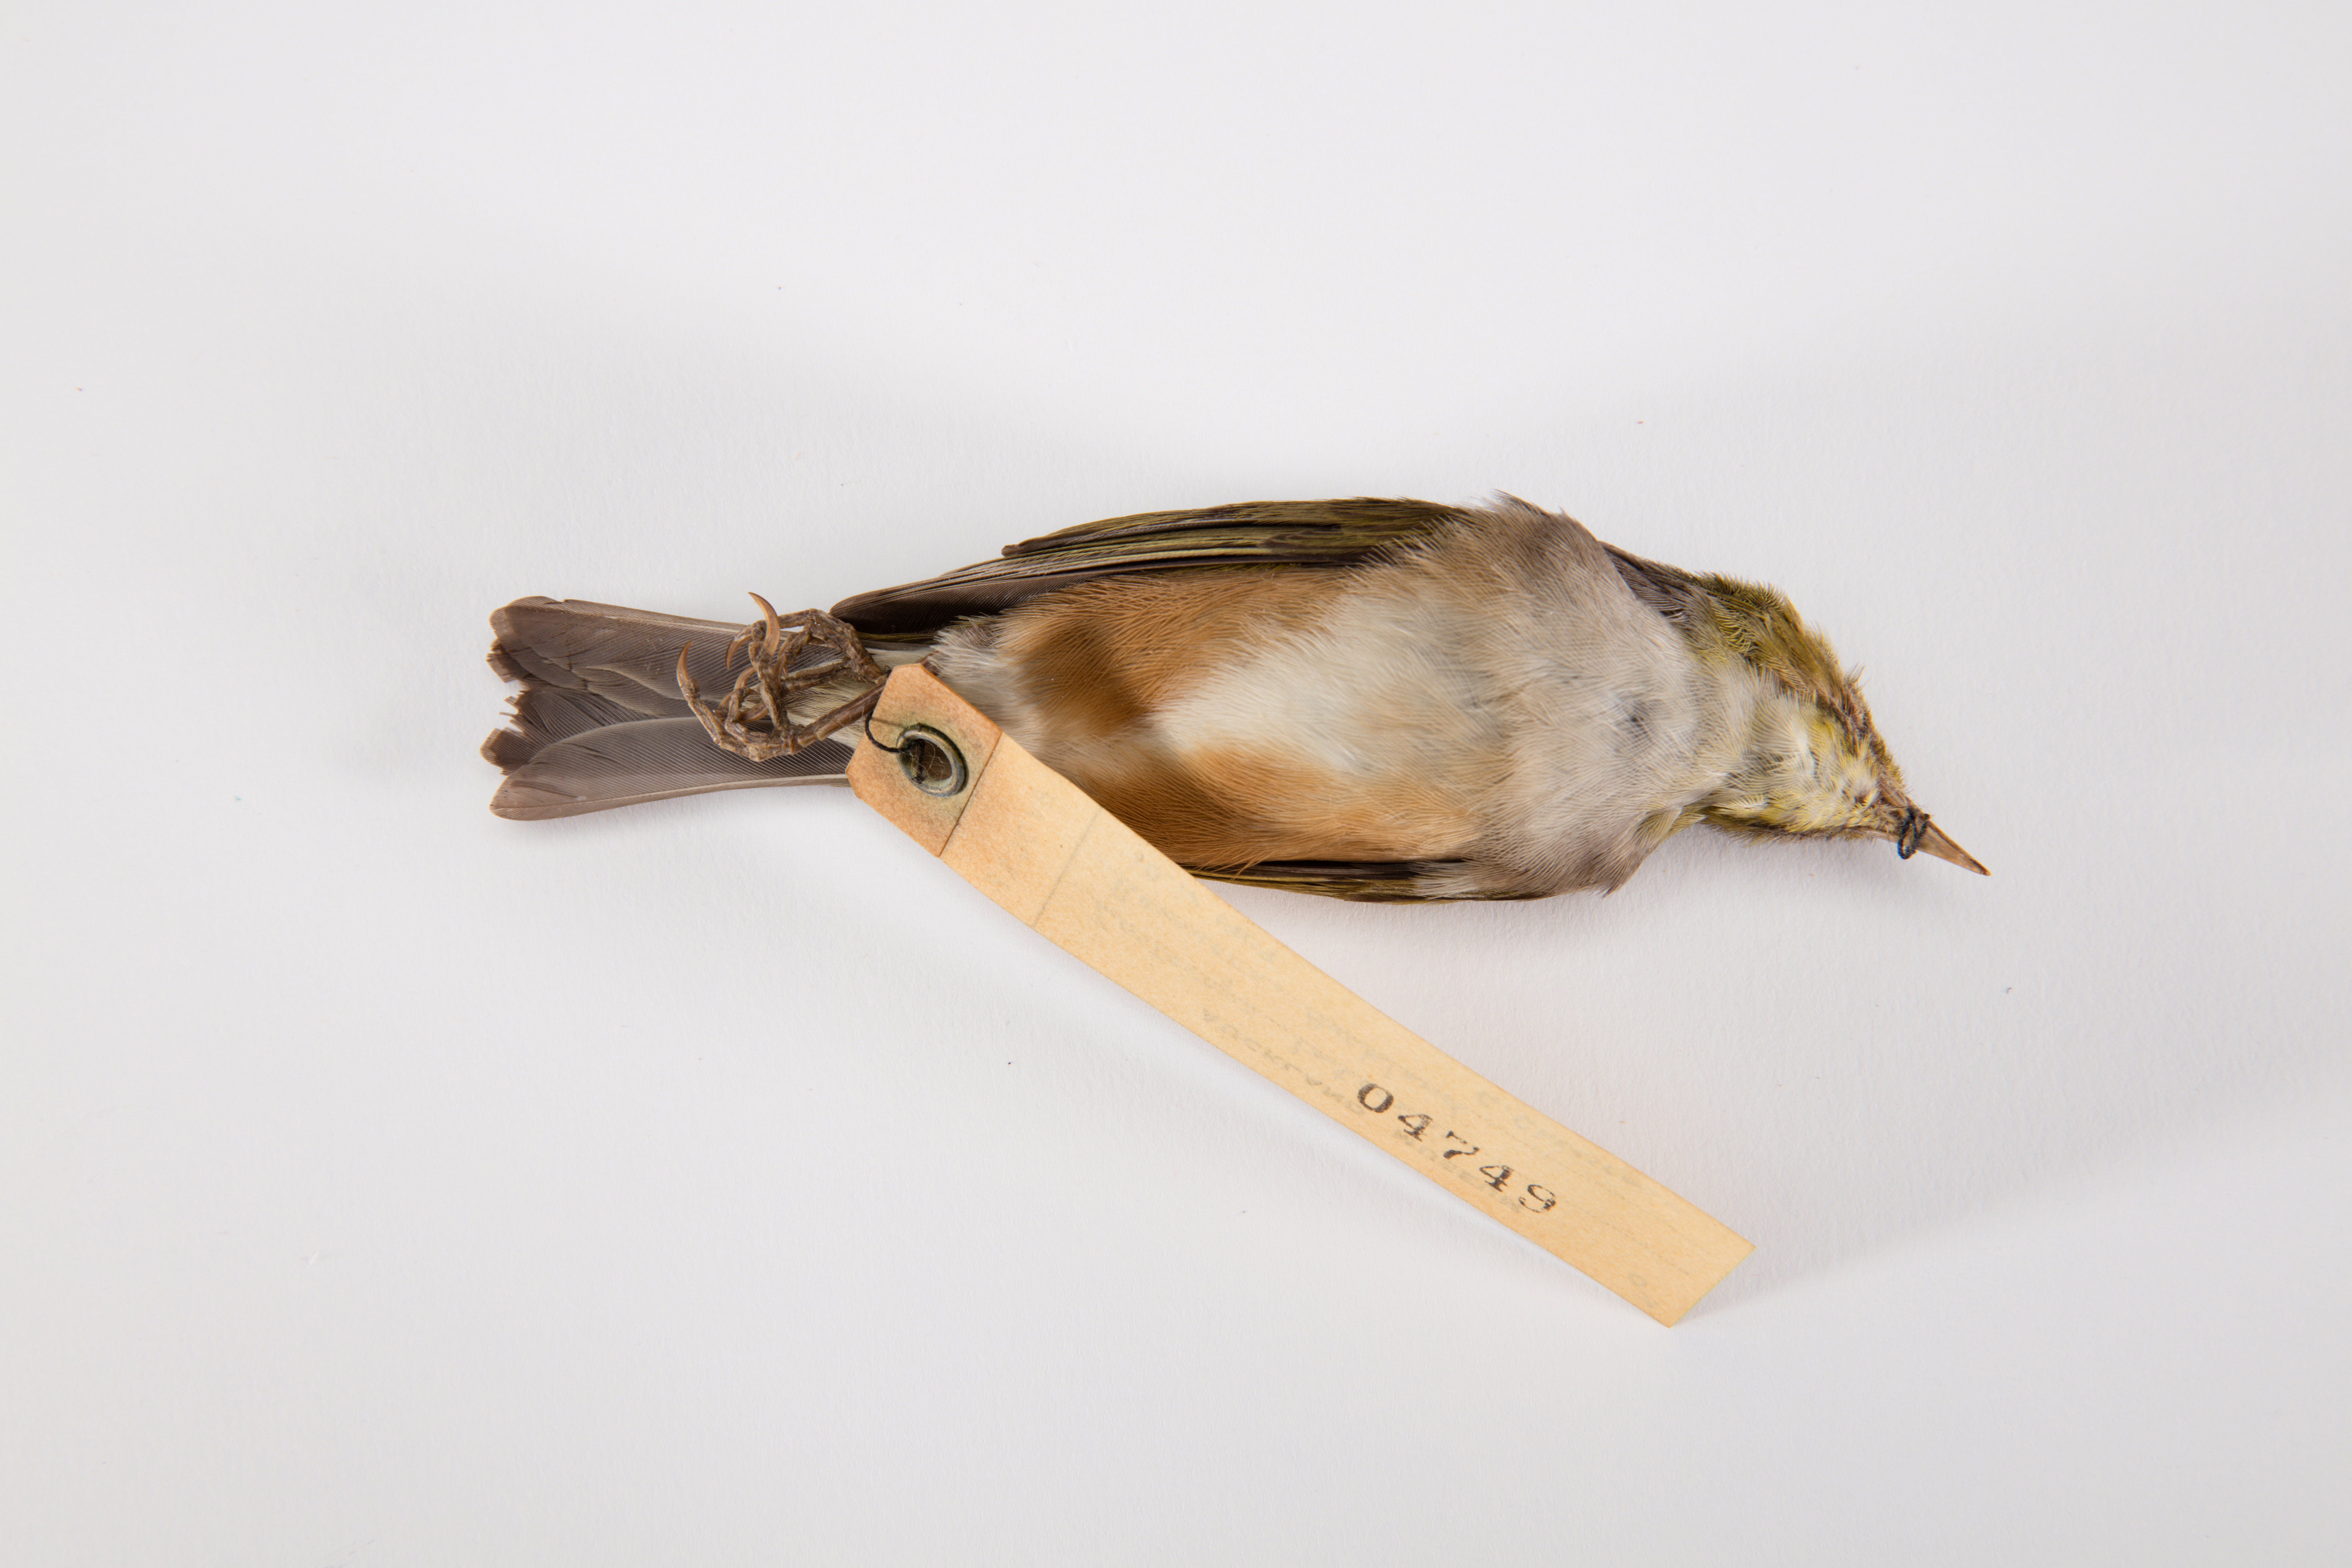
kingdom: Animalia
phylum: Chordata
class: Aves
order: Passeriformes
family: Zosteropidae
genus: Zosterops
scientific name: Zosterops lateralis
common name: Silvereye
